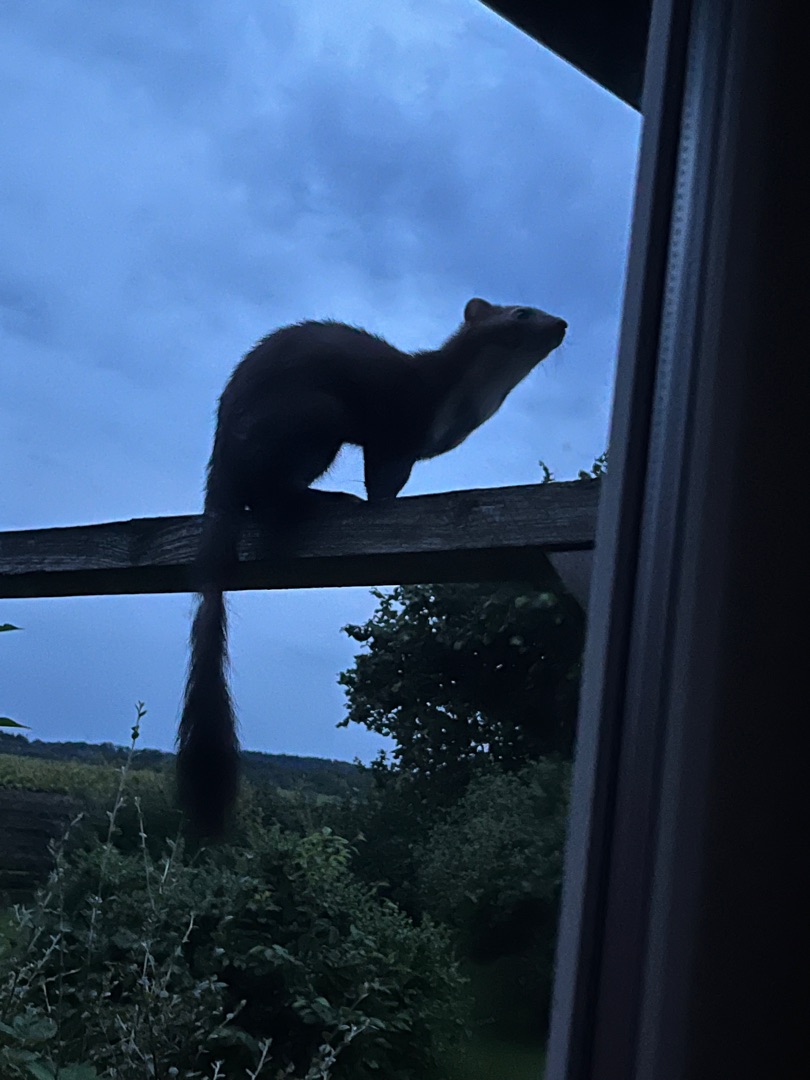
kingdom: Animalia
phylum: Chordata
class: Mammalia
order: Carnivora
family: Mustelidae
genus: Martes
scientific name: Martes foina
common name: Husmår
